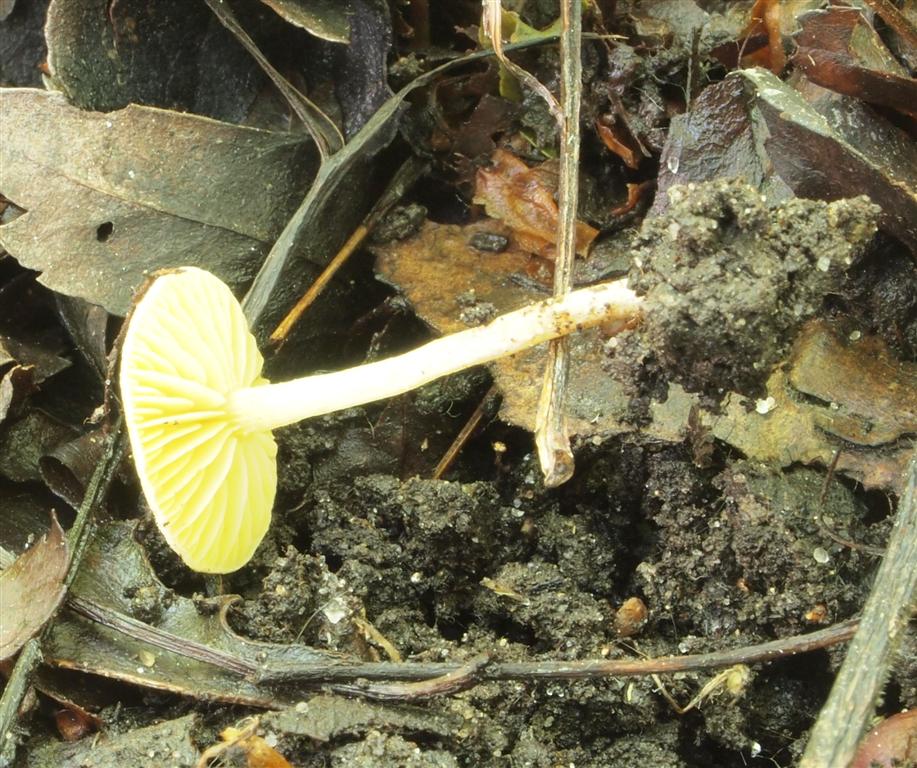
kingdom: Fungi
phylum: Basidiomycota
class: Agaricomycetes
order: Agaricales
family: Tubariaceae
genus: Tubaria
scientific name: Tubaria dispersa
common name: tjørne-fnughat
